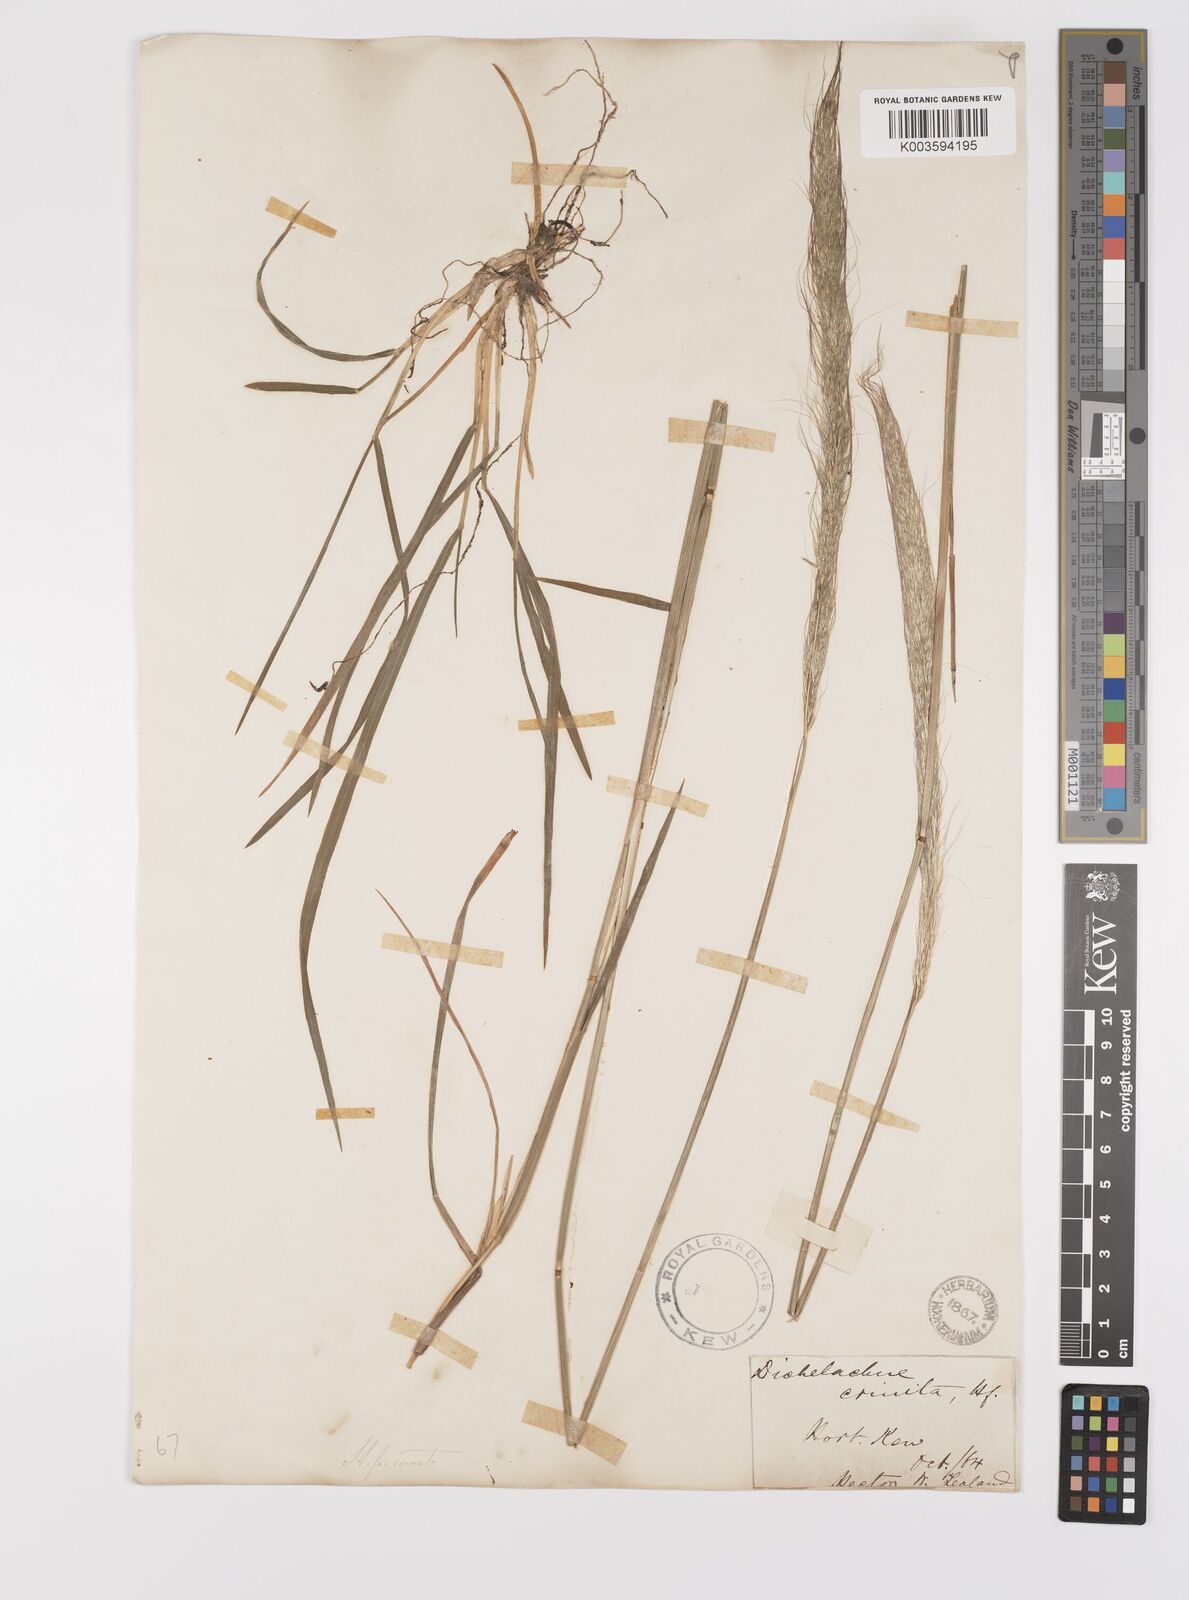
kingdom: Plantae
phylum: Tracheophyta
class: Liliopsida
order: Poales
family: Poaceae
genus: Dichelachne
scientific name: Dichelachne crinita
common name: Clovenfoot plumegrass
